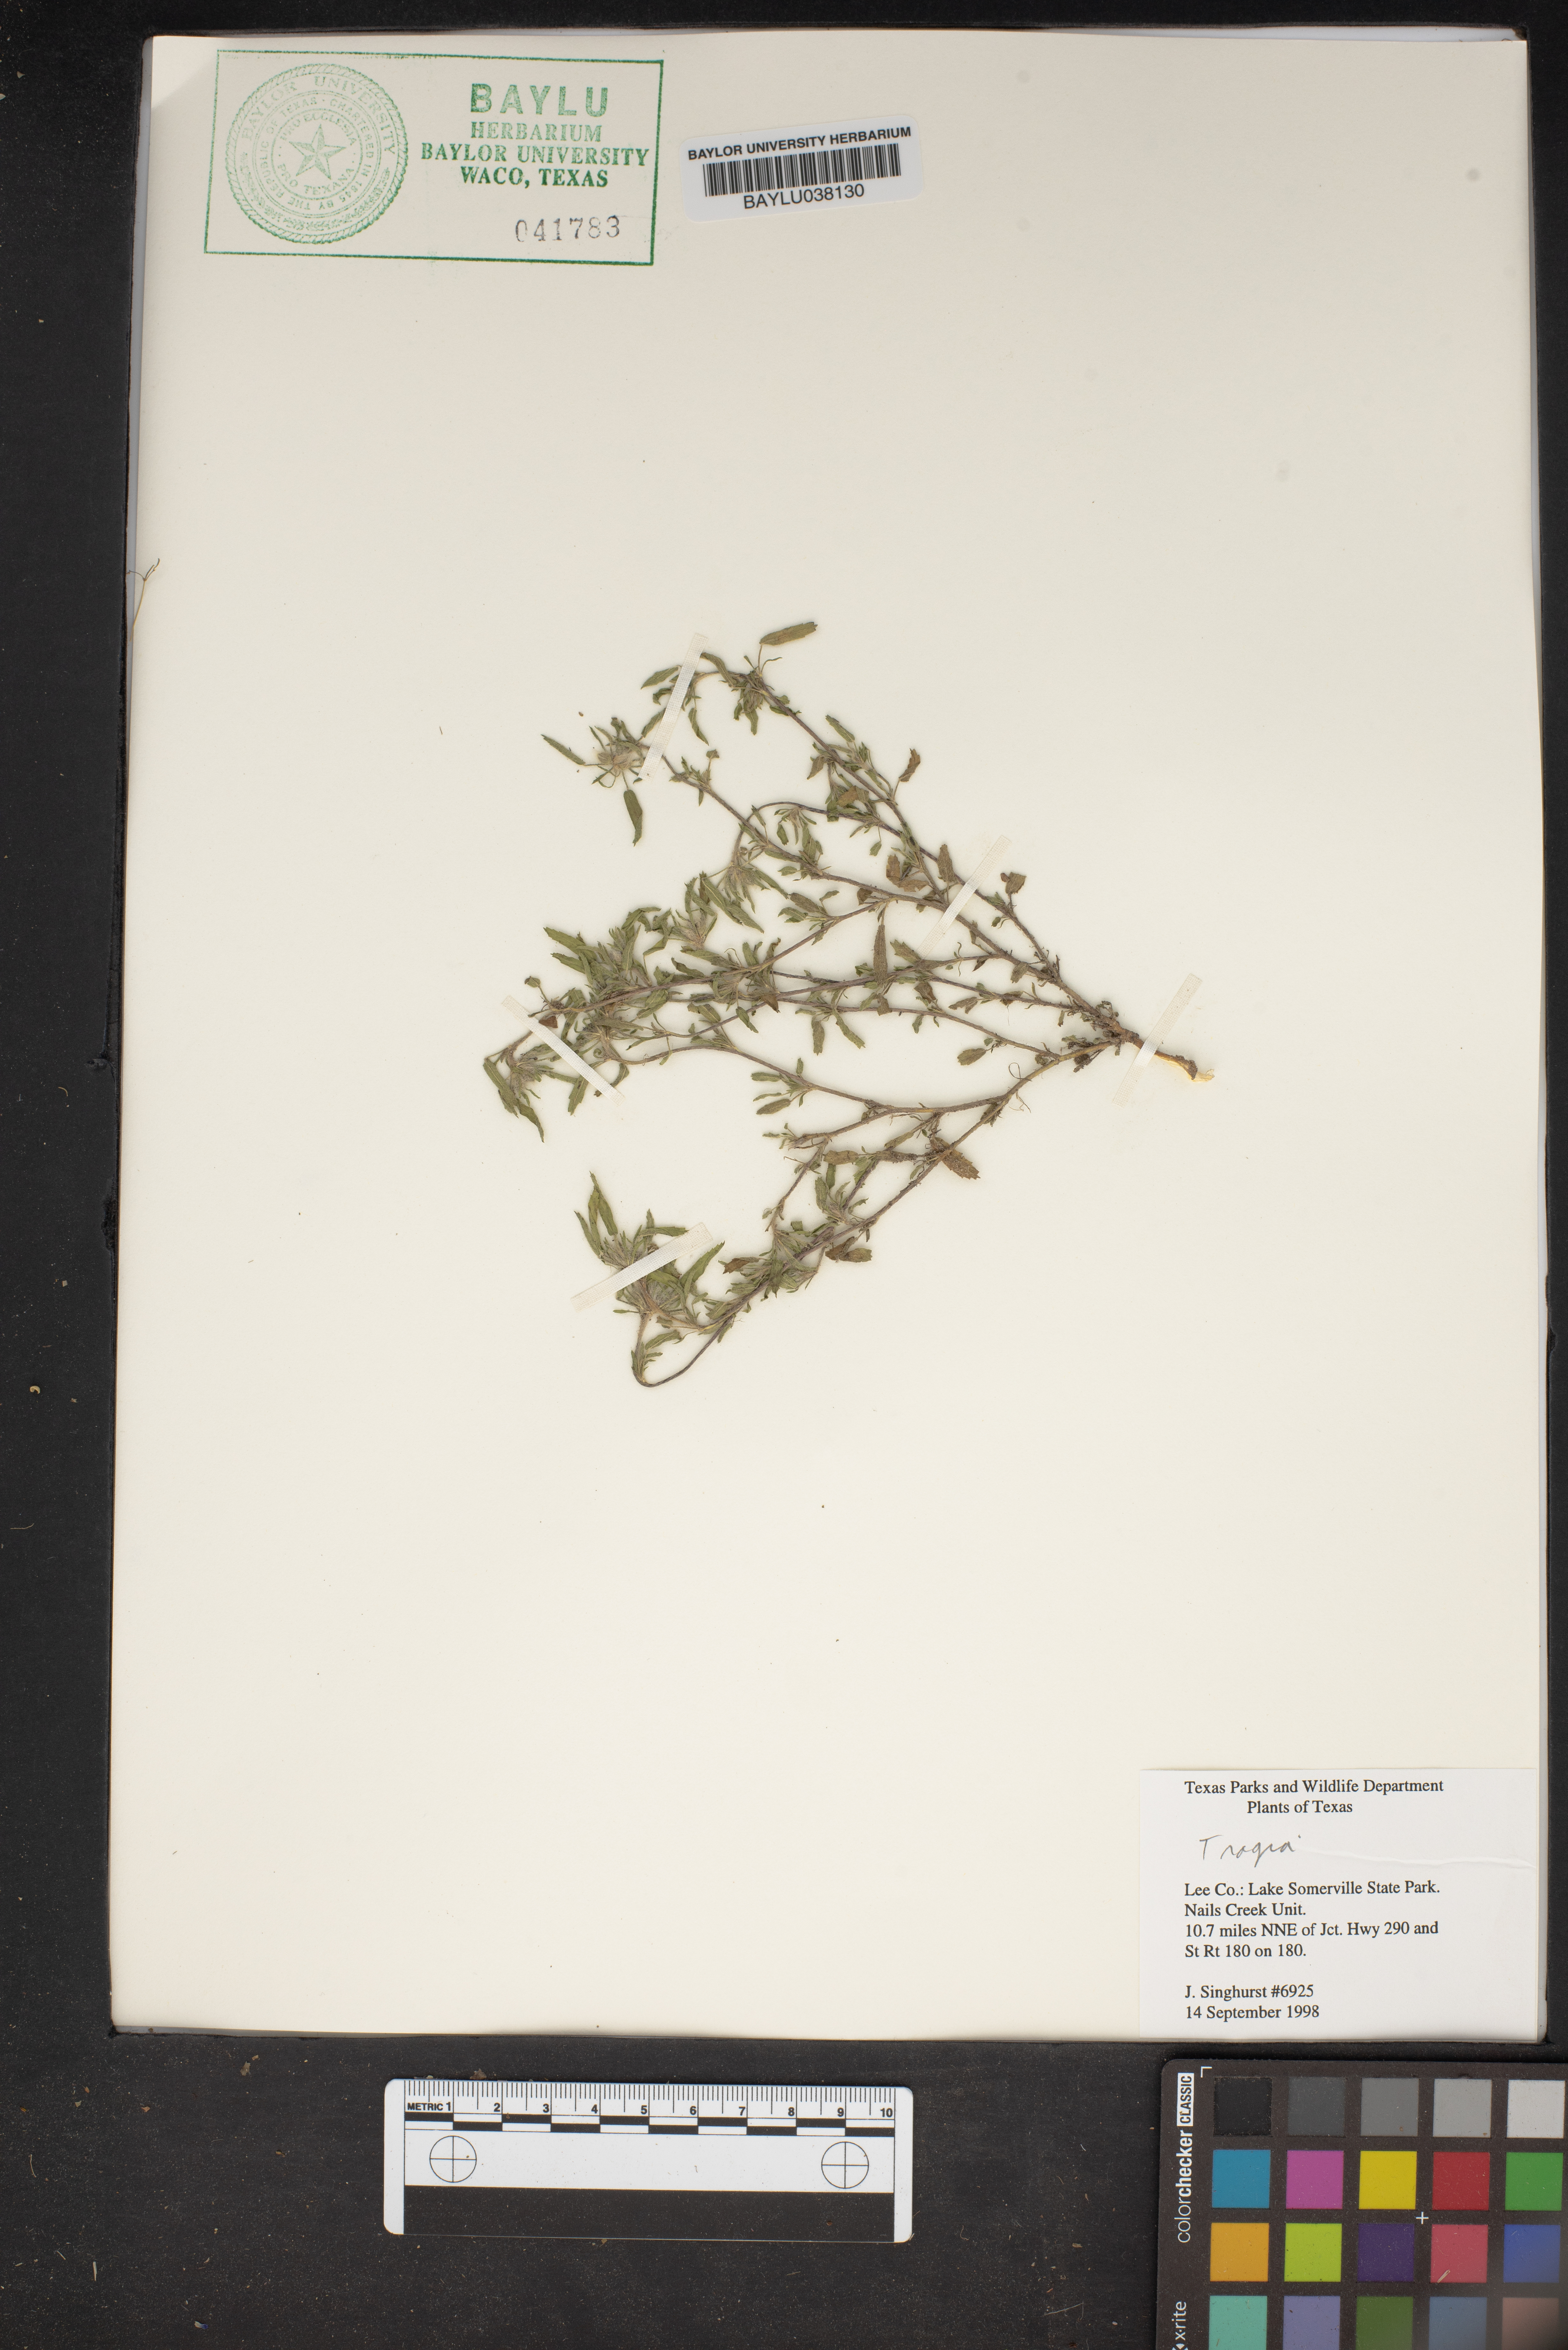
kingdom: Plantae
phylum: Tracheophyta
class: Magnoliopsida
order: Malpighiales
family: Euphorbiaceae
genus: Tragia
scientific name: Tragia
